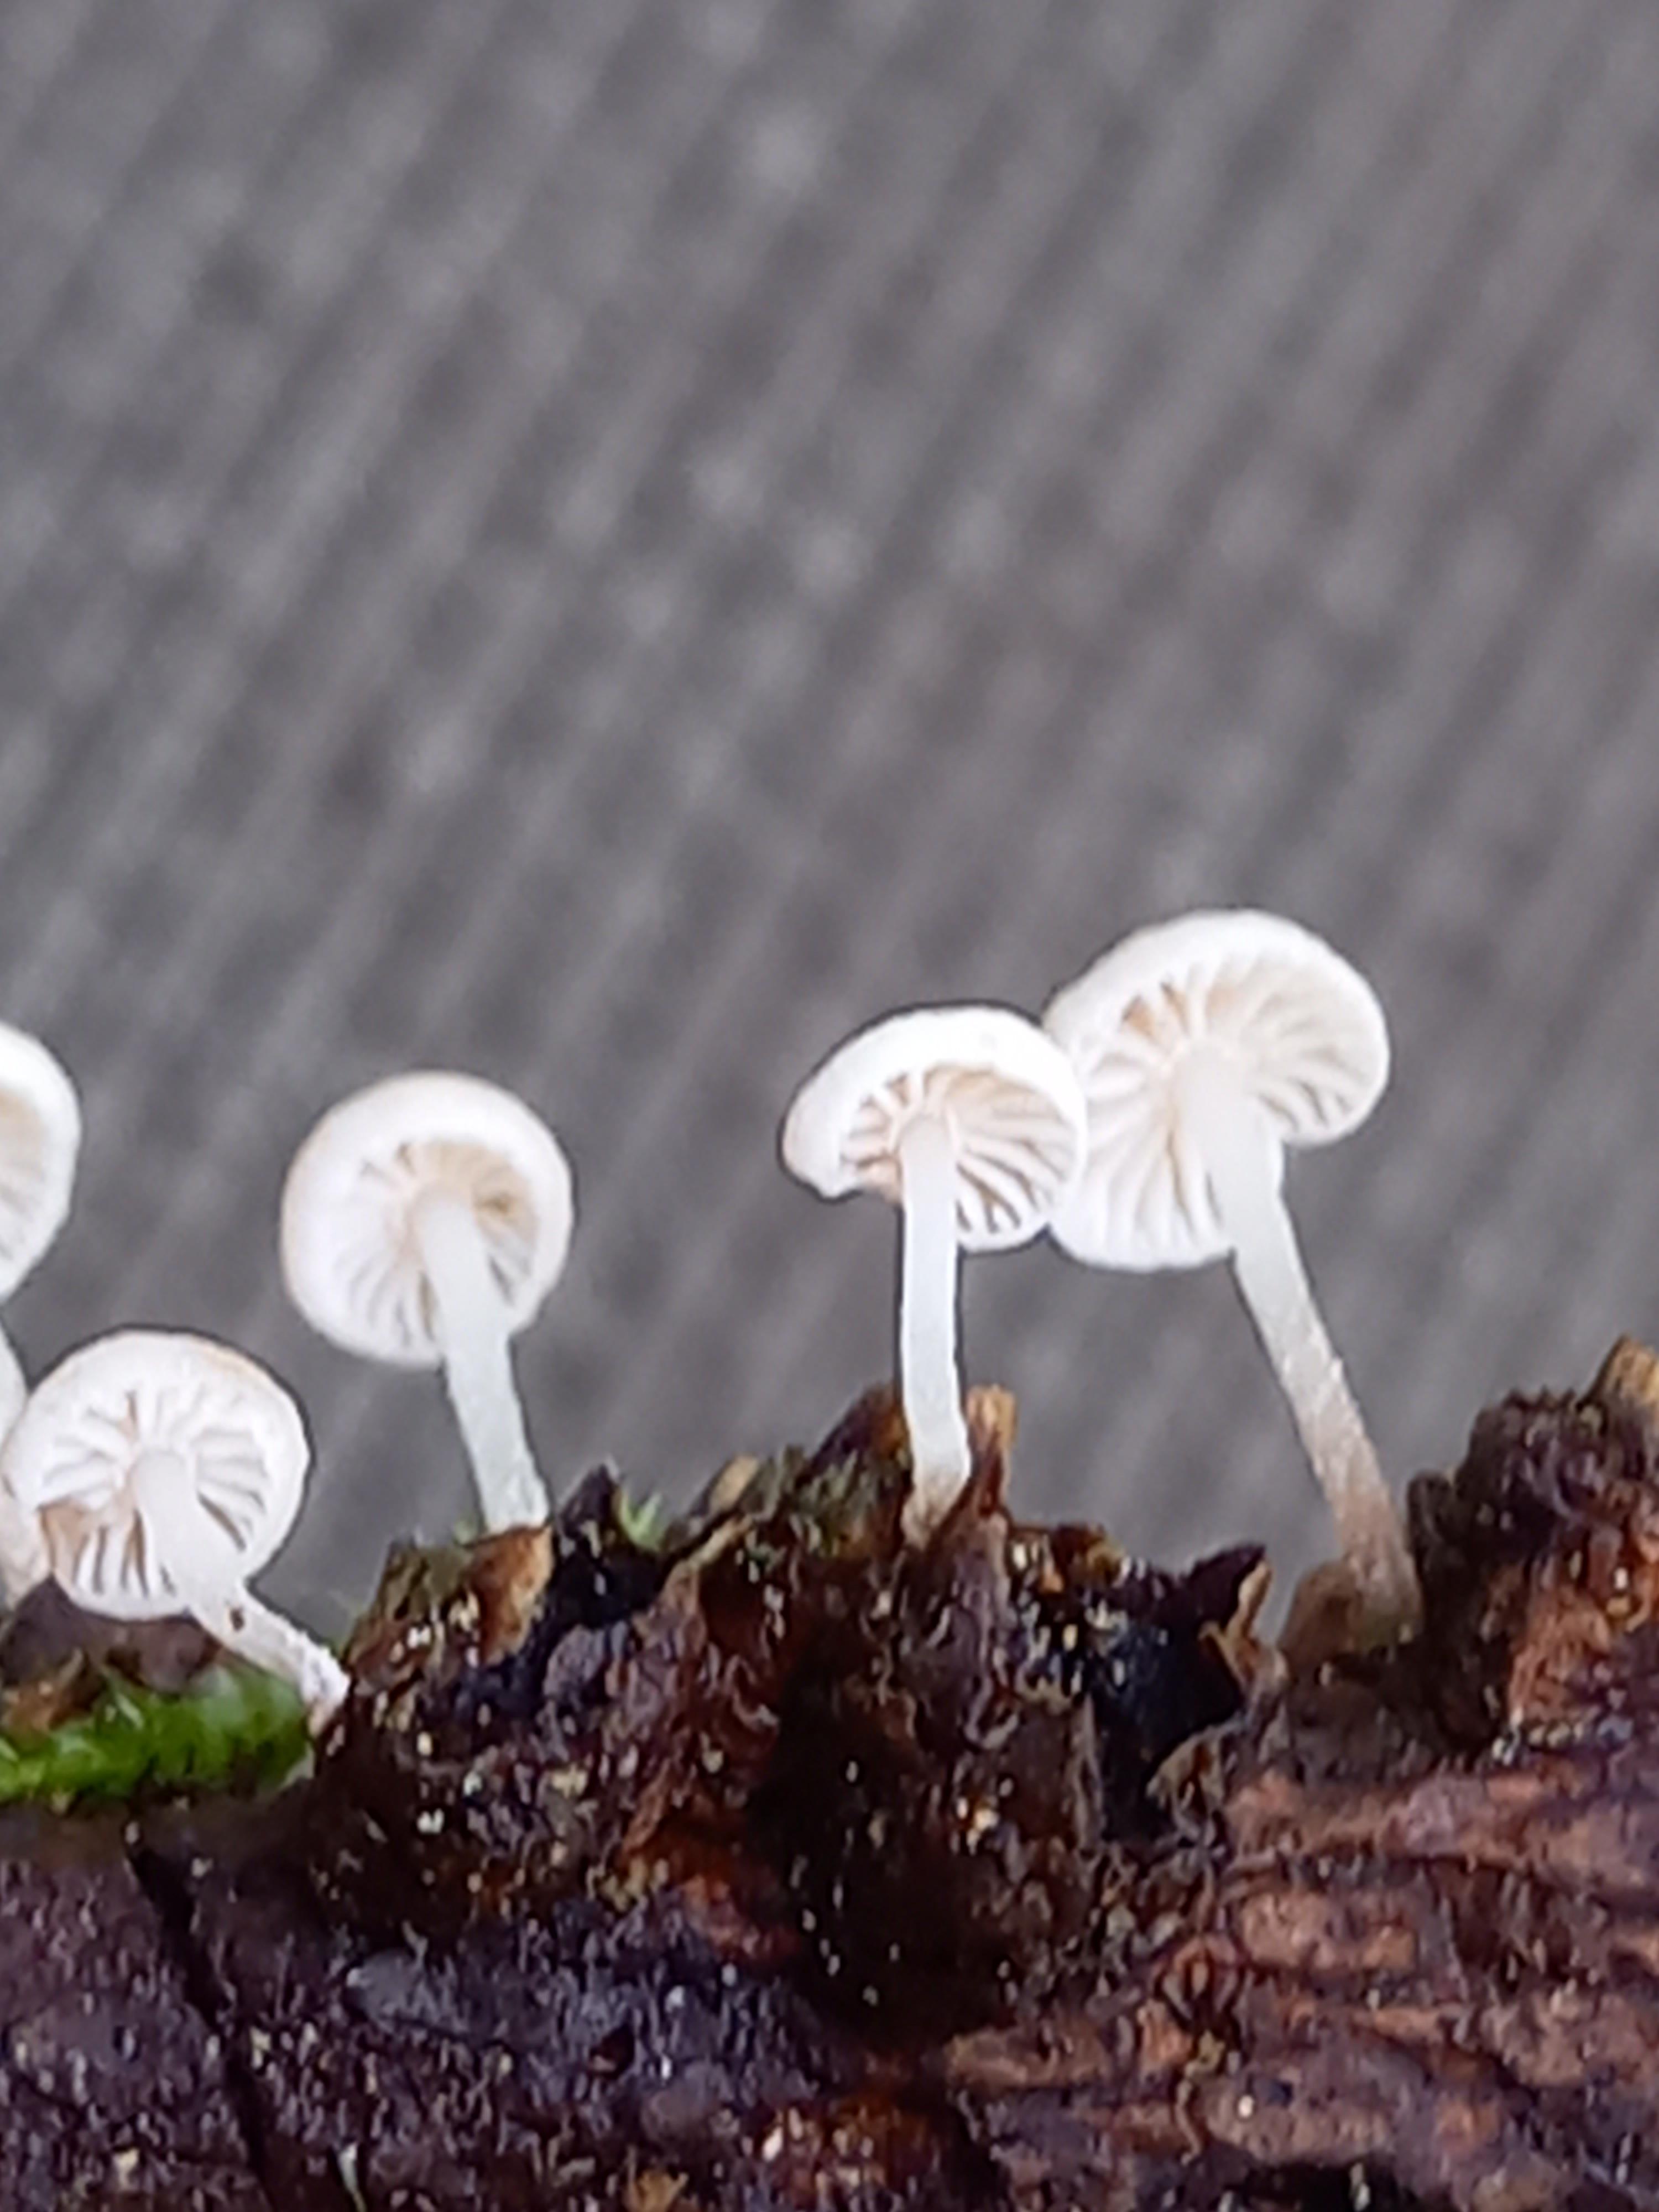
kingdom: Fungi
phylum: Basidiomycota
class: Agaricomycetes
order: Agaricales
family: Omphalotaceae
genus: Collybiopsis
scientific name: Collybiopsis ramealis
